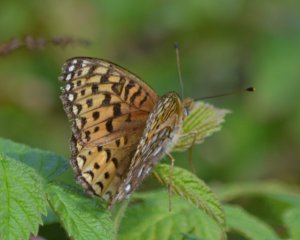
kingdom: Animalia
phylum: Arthropoda
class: Insecta
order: Lepidoptera
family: Nymphalidae
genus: Speyeria
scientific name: Speyeria atlantis
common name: Atlantis Fritillary
